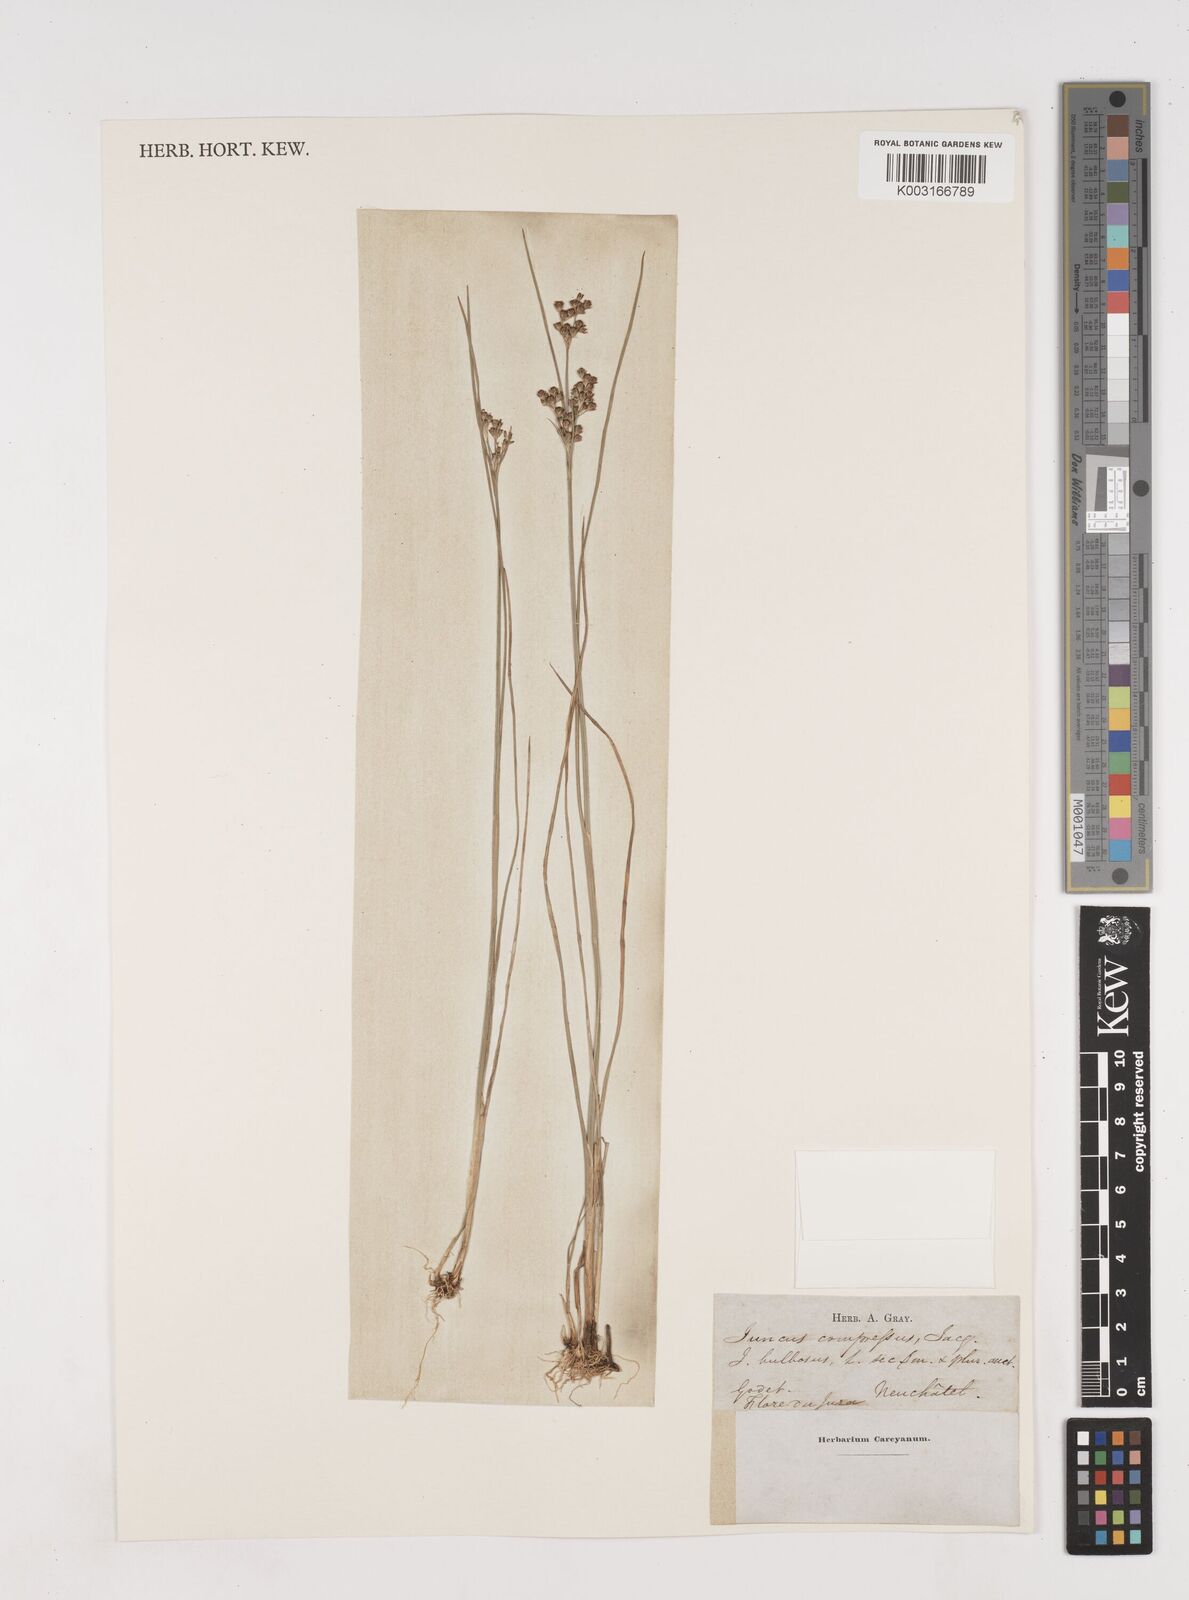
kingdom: Plantae
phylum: Tracheophyta
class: Liliopsida
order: Poales
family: Juncaceae
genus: Juncus
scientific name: Juncus compressus
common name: Round-fruited rush
